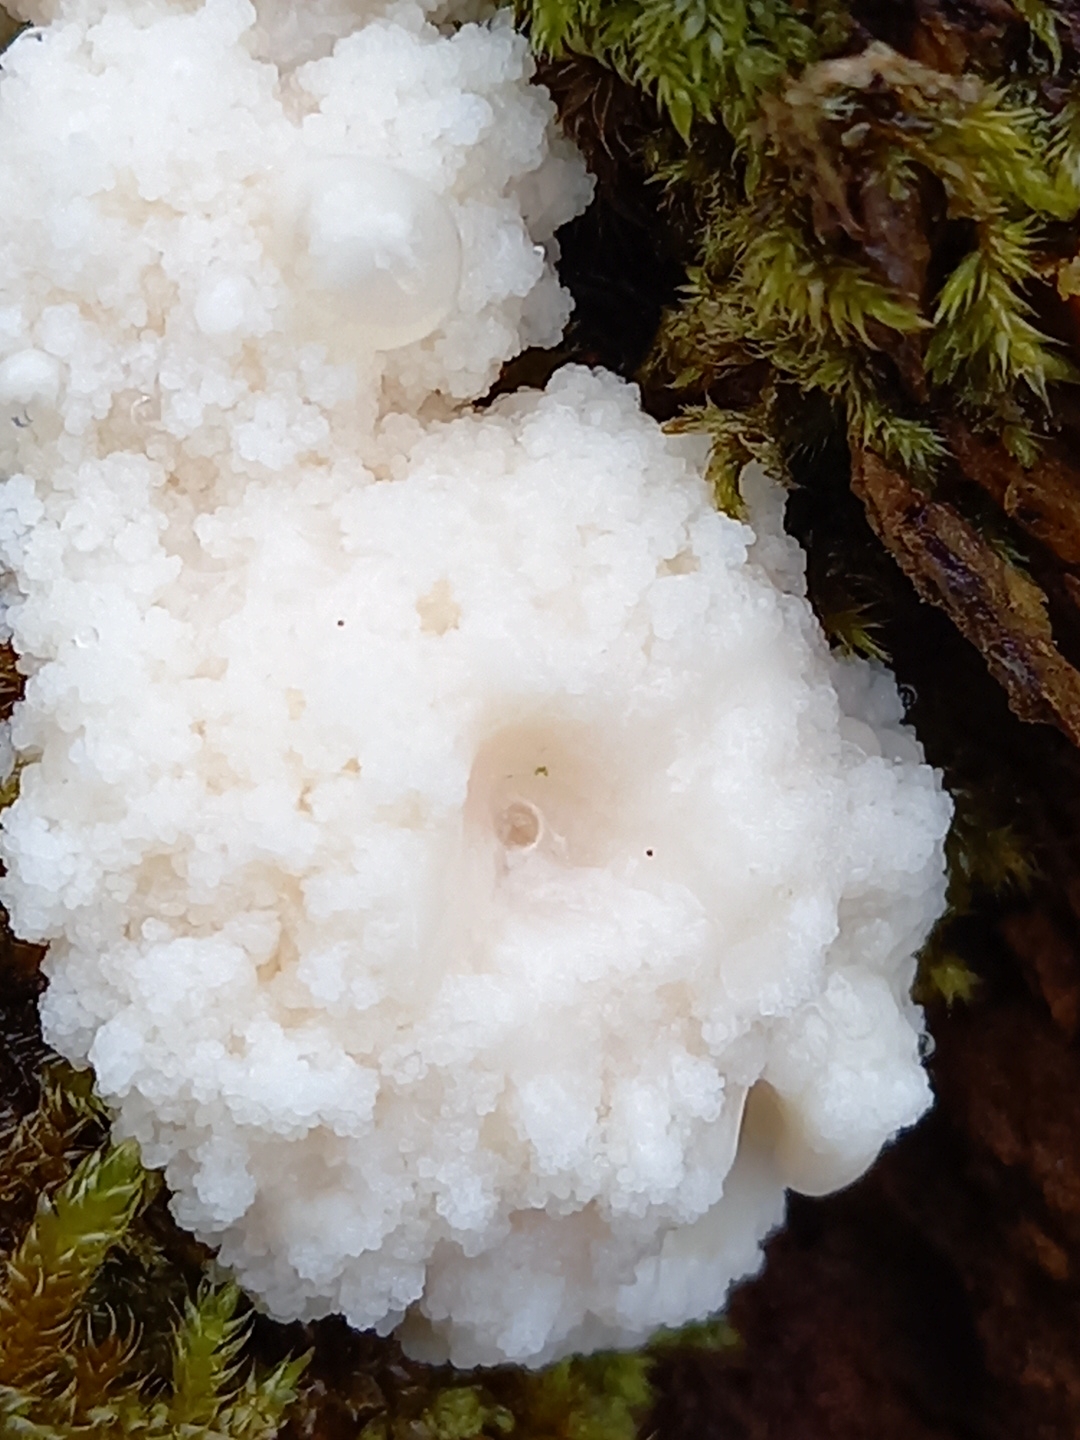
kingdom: Protozoa
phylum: Mycetozoa
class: Myxomycetes
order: Cribrariales
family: Tubiferaceae
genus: Reticularia
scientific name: Reticularia lycoperdon
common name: skinnende støvpude
